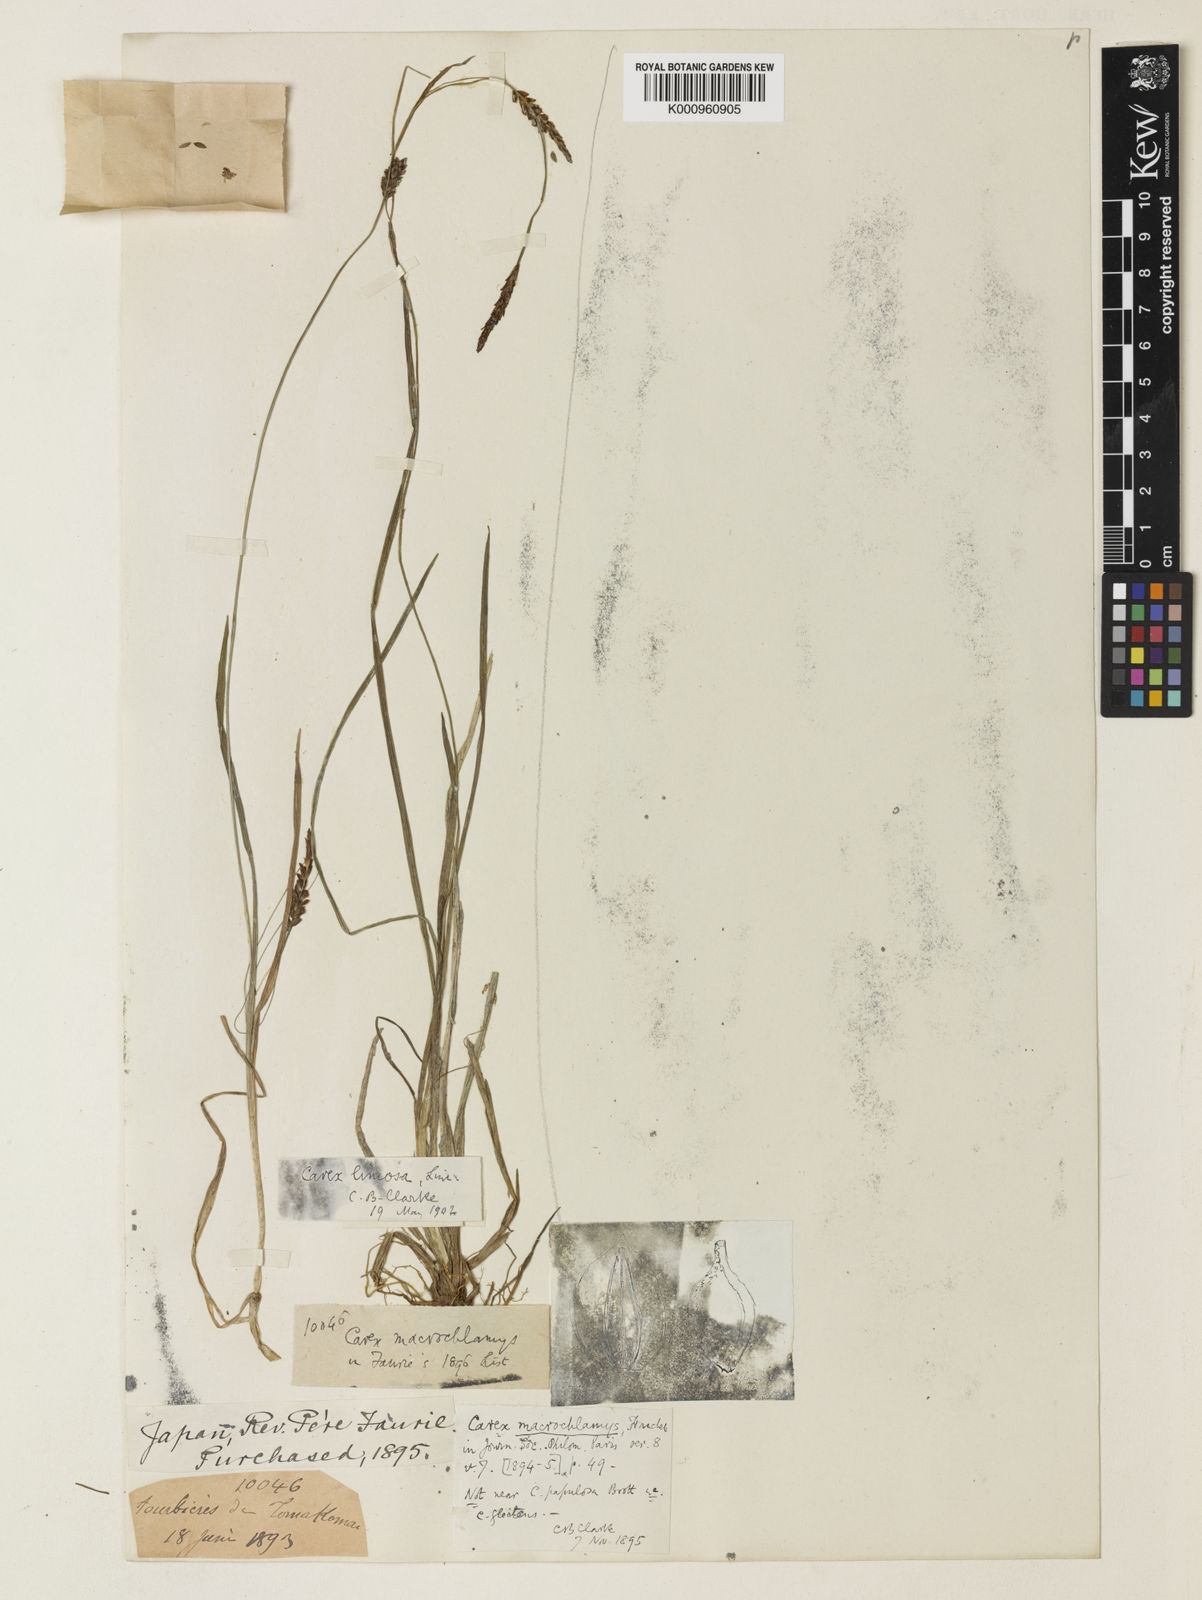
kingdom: Plantae
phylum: Tracheophyta
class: Liliopsida
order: Poales
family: Cyperaceae
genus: Carex
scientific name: Carex limosa
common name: Bog sedge
